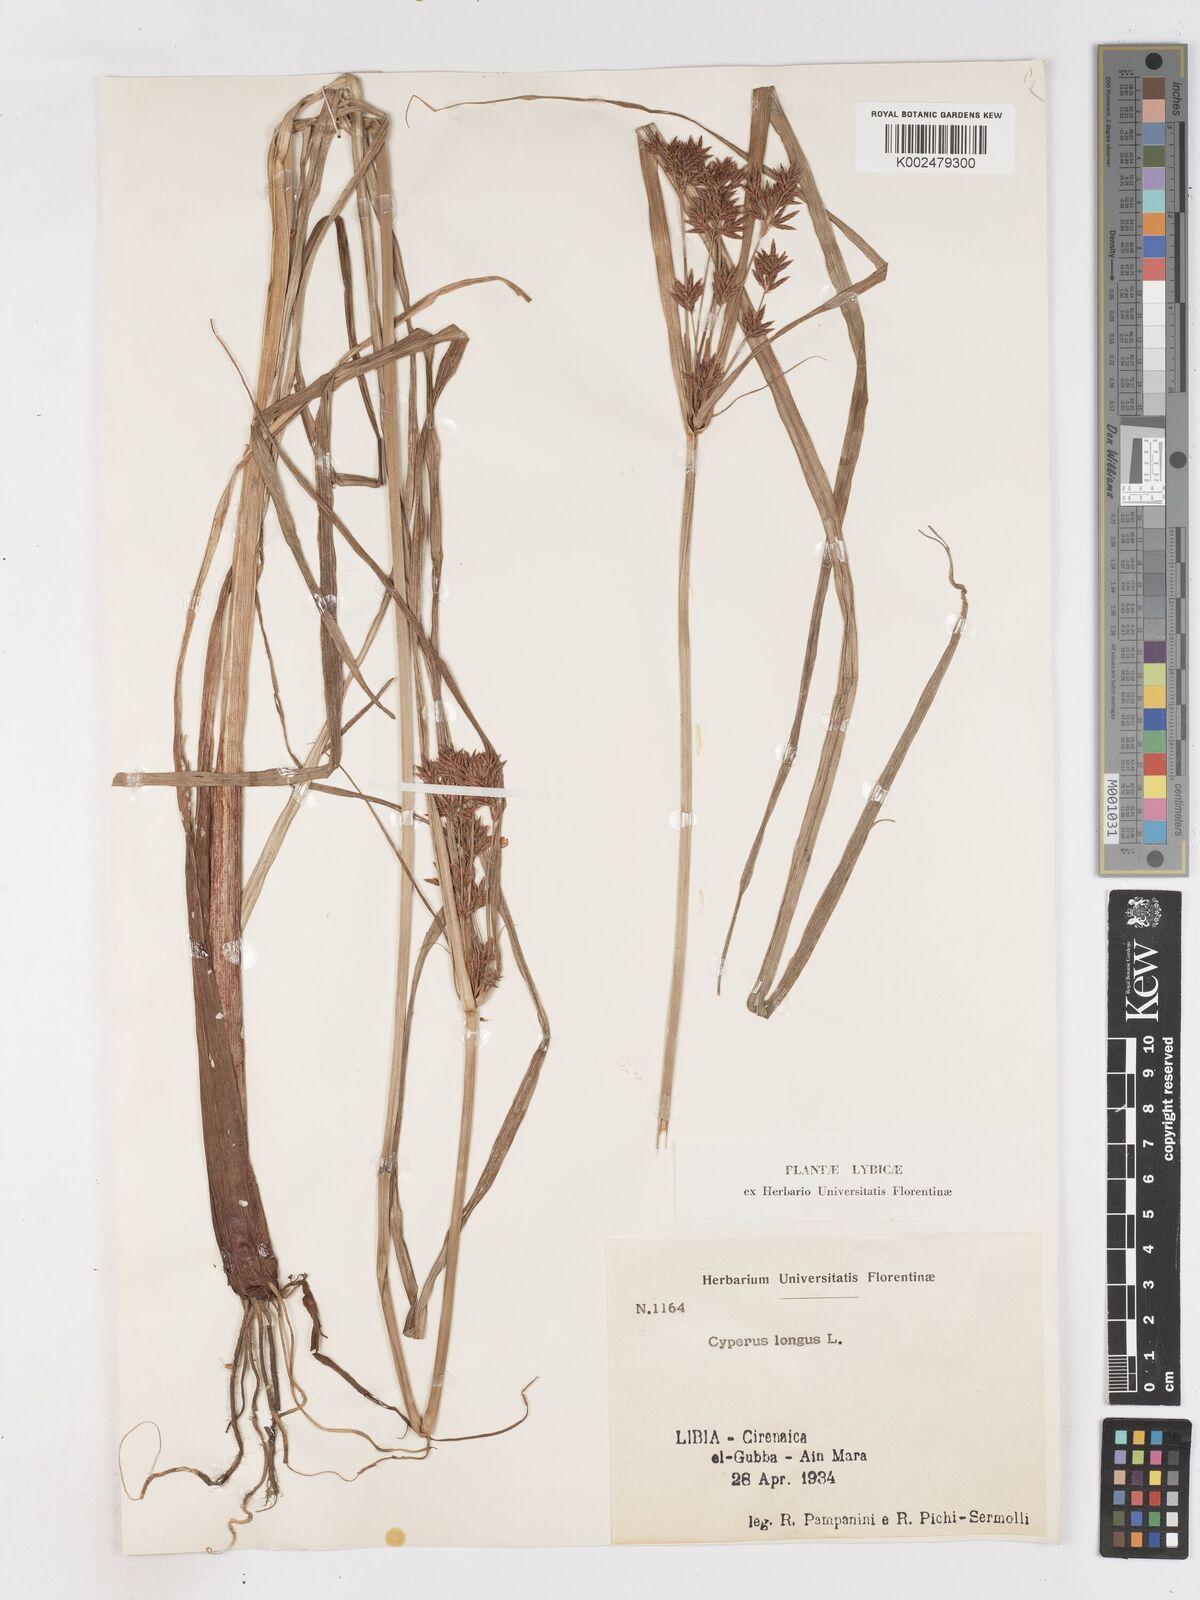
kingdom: Plantae
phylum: Tracheophyta
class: Liliopsida
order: Poales
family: Cyperaceae
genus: Cyperus
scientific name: Cyperus longus
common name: Galingale
